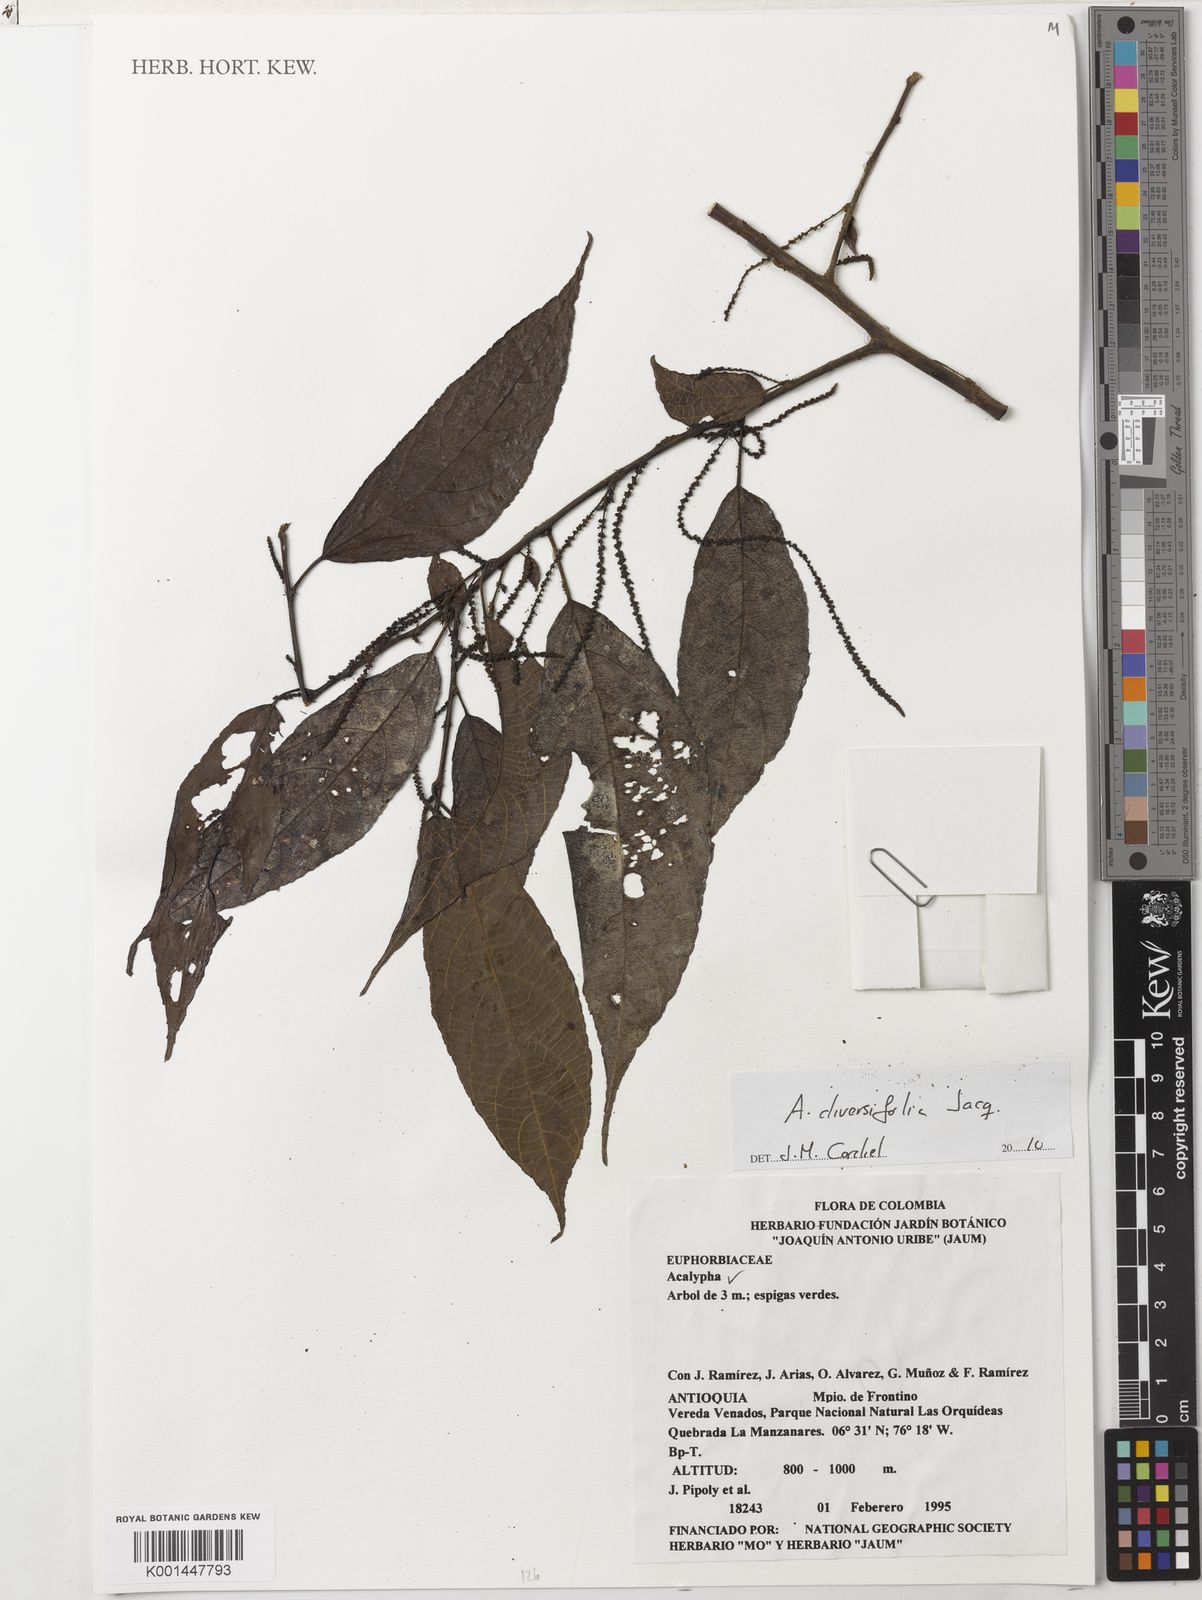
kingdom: Plantae
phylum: Tracheophyta
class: Magnoliopsida
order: Malpighiales
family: Euphorbiaceae
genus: Acalypha
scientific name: Acalypha diversifolia
